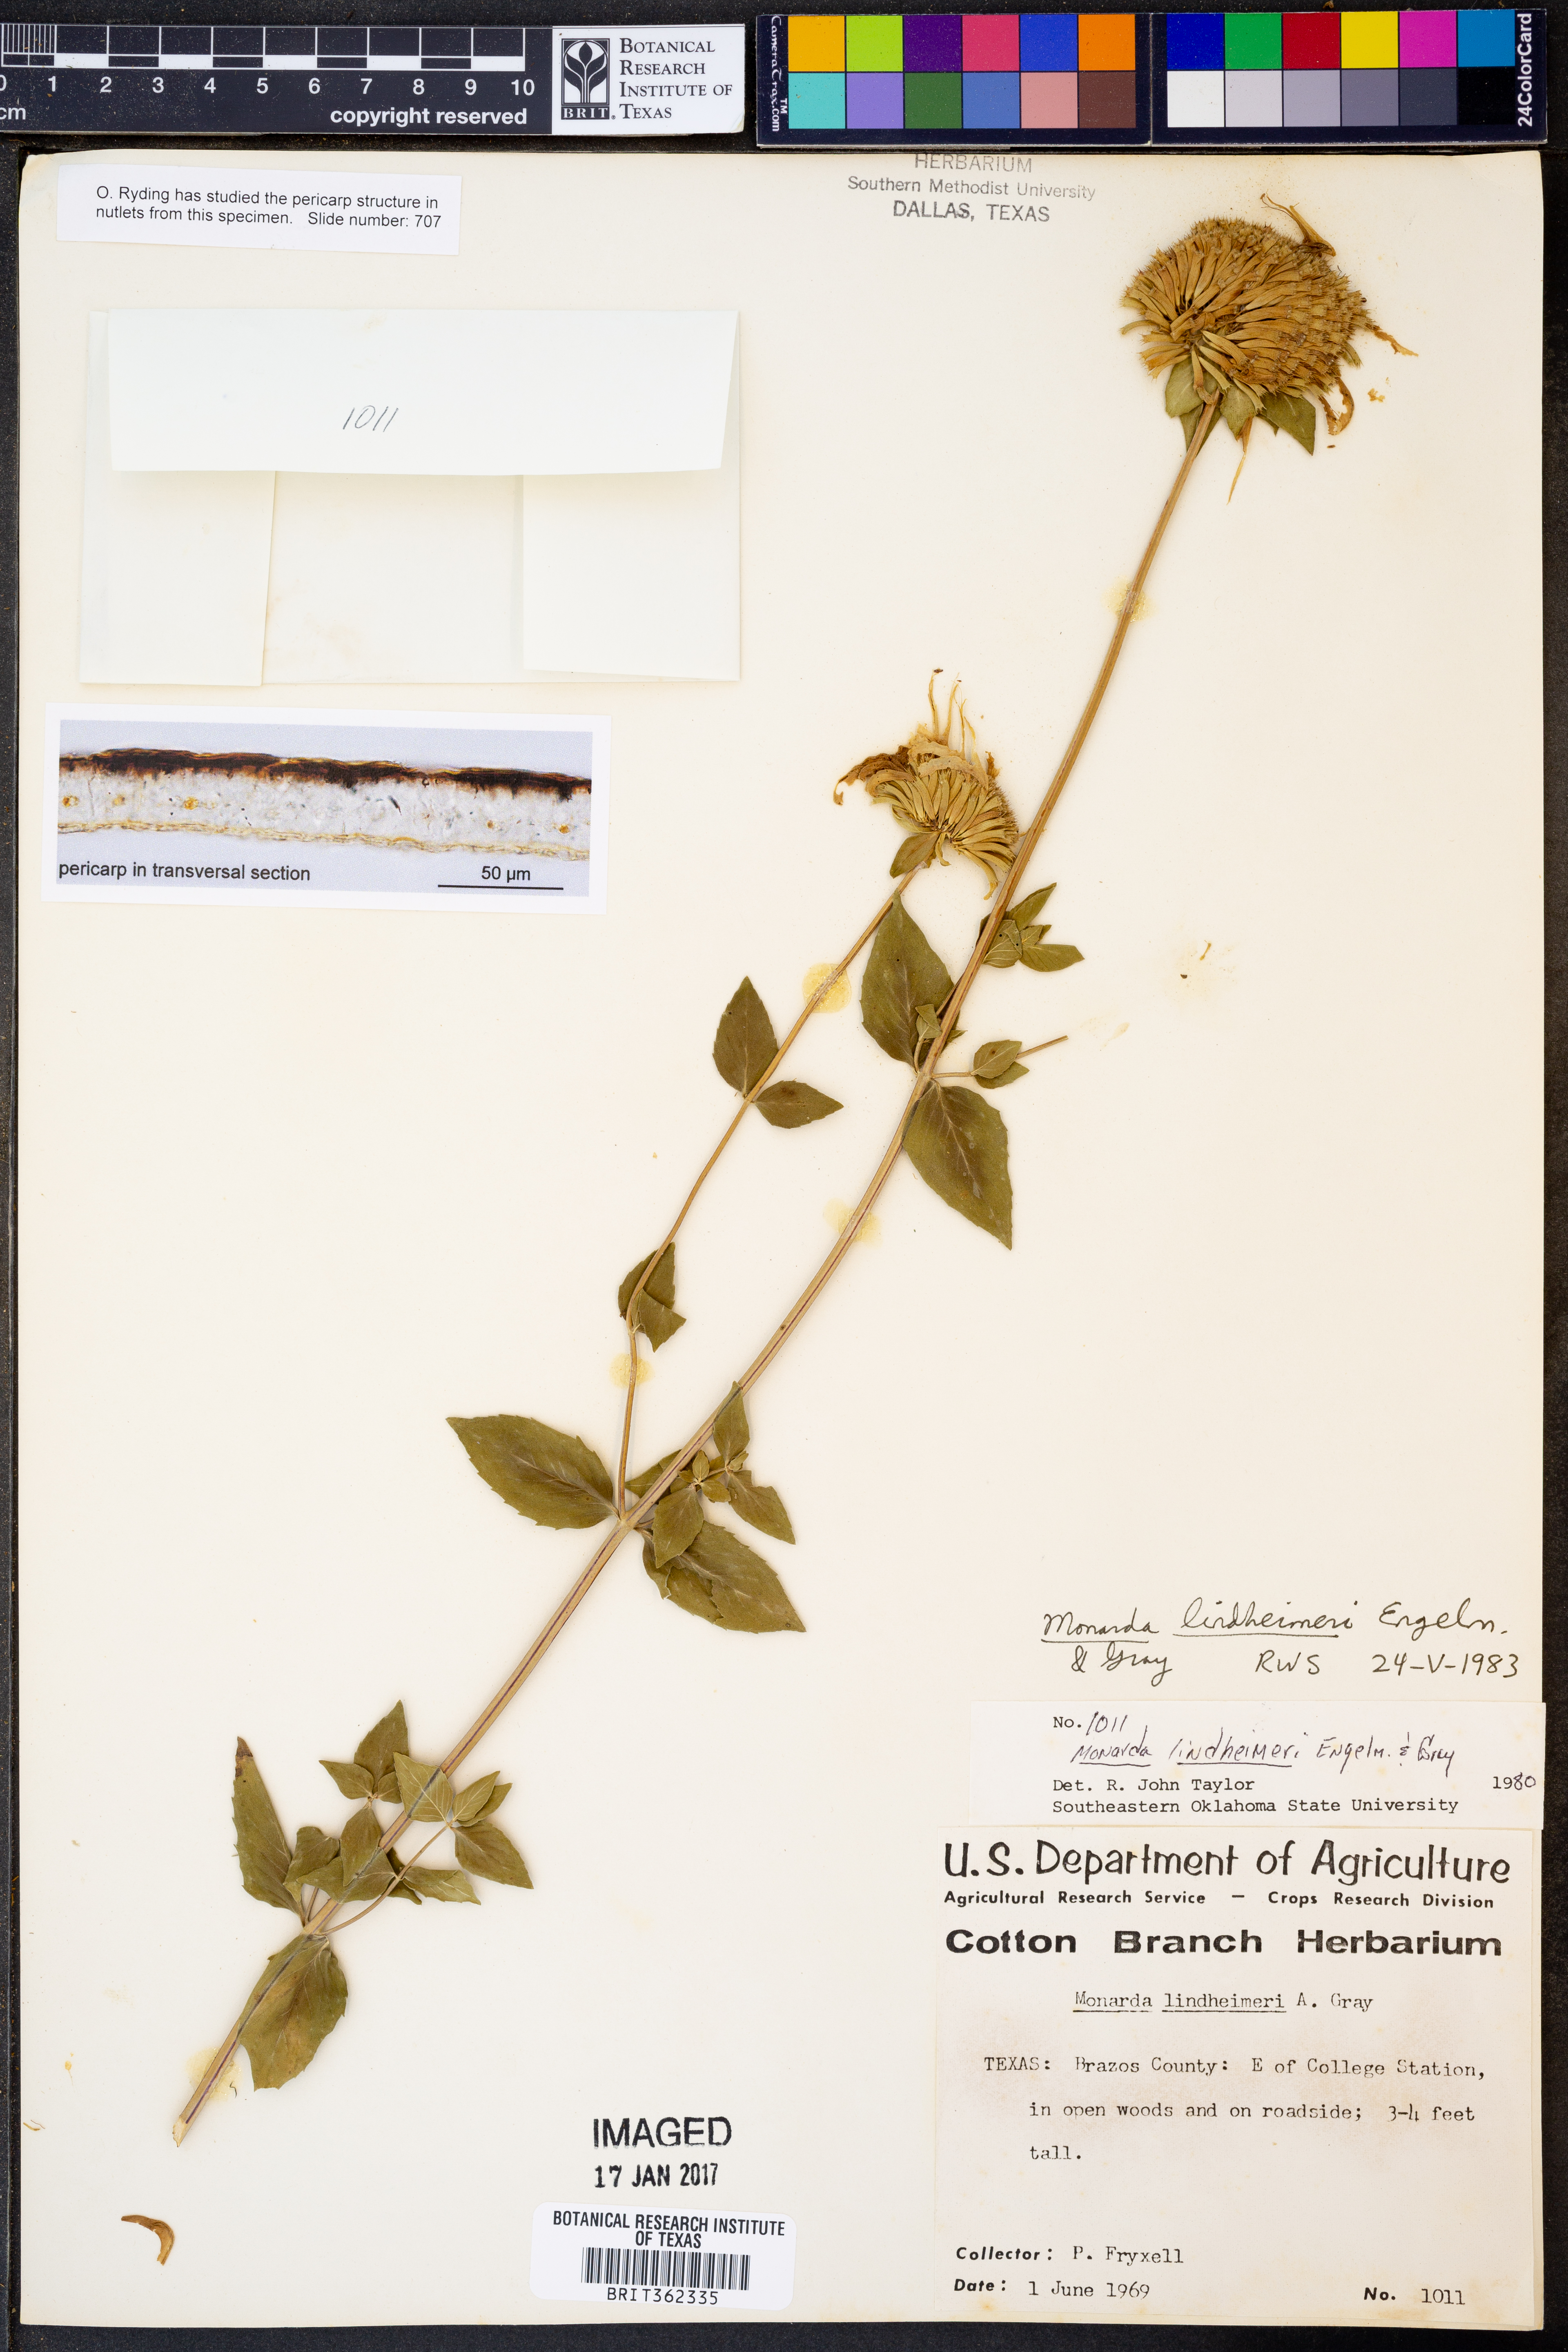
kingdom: Plantae
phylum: Tracheophyta
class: Magnoliopsida
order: Lamiales
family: Lamiaceae
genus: Monarda
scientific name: Monarda lindheimeri
